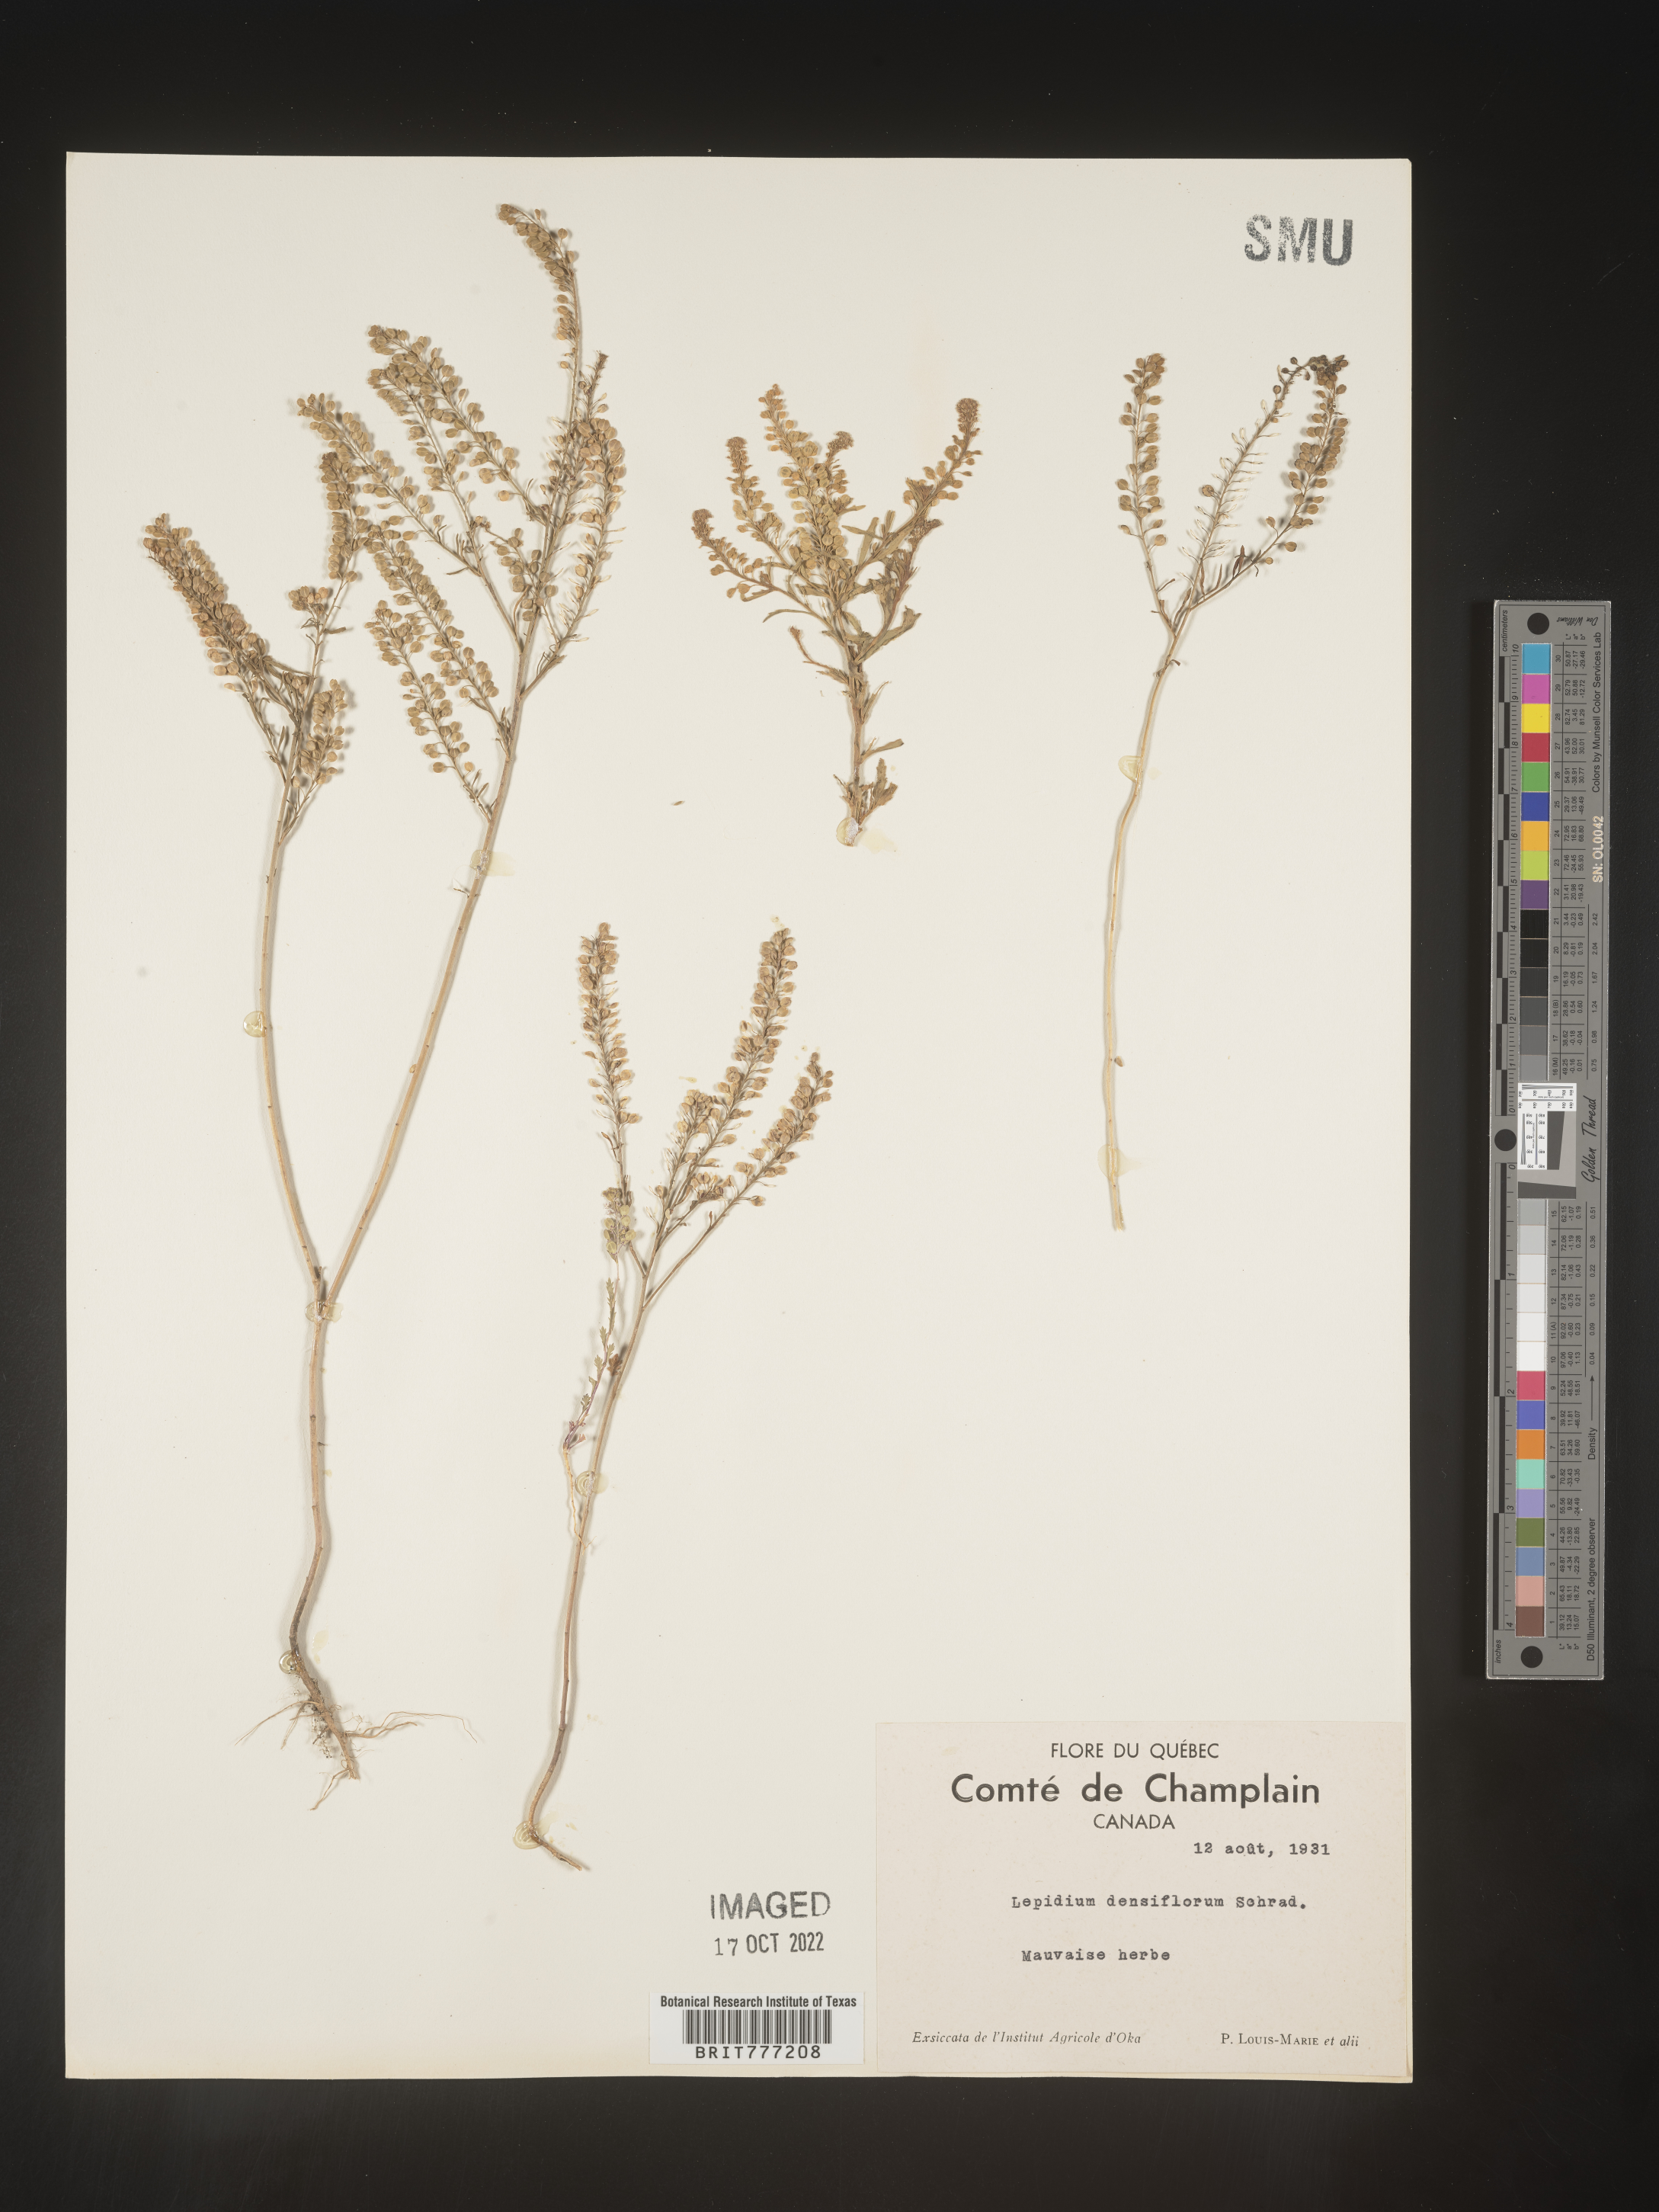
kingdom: Plantae
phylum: Tracheophyta
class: Magnoliopsida
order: Brassicales
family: Brassicaceae
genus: Lepidium
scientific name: Lepidium densiflorum
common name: Miner's pepperwort
